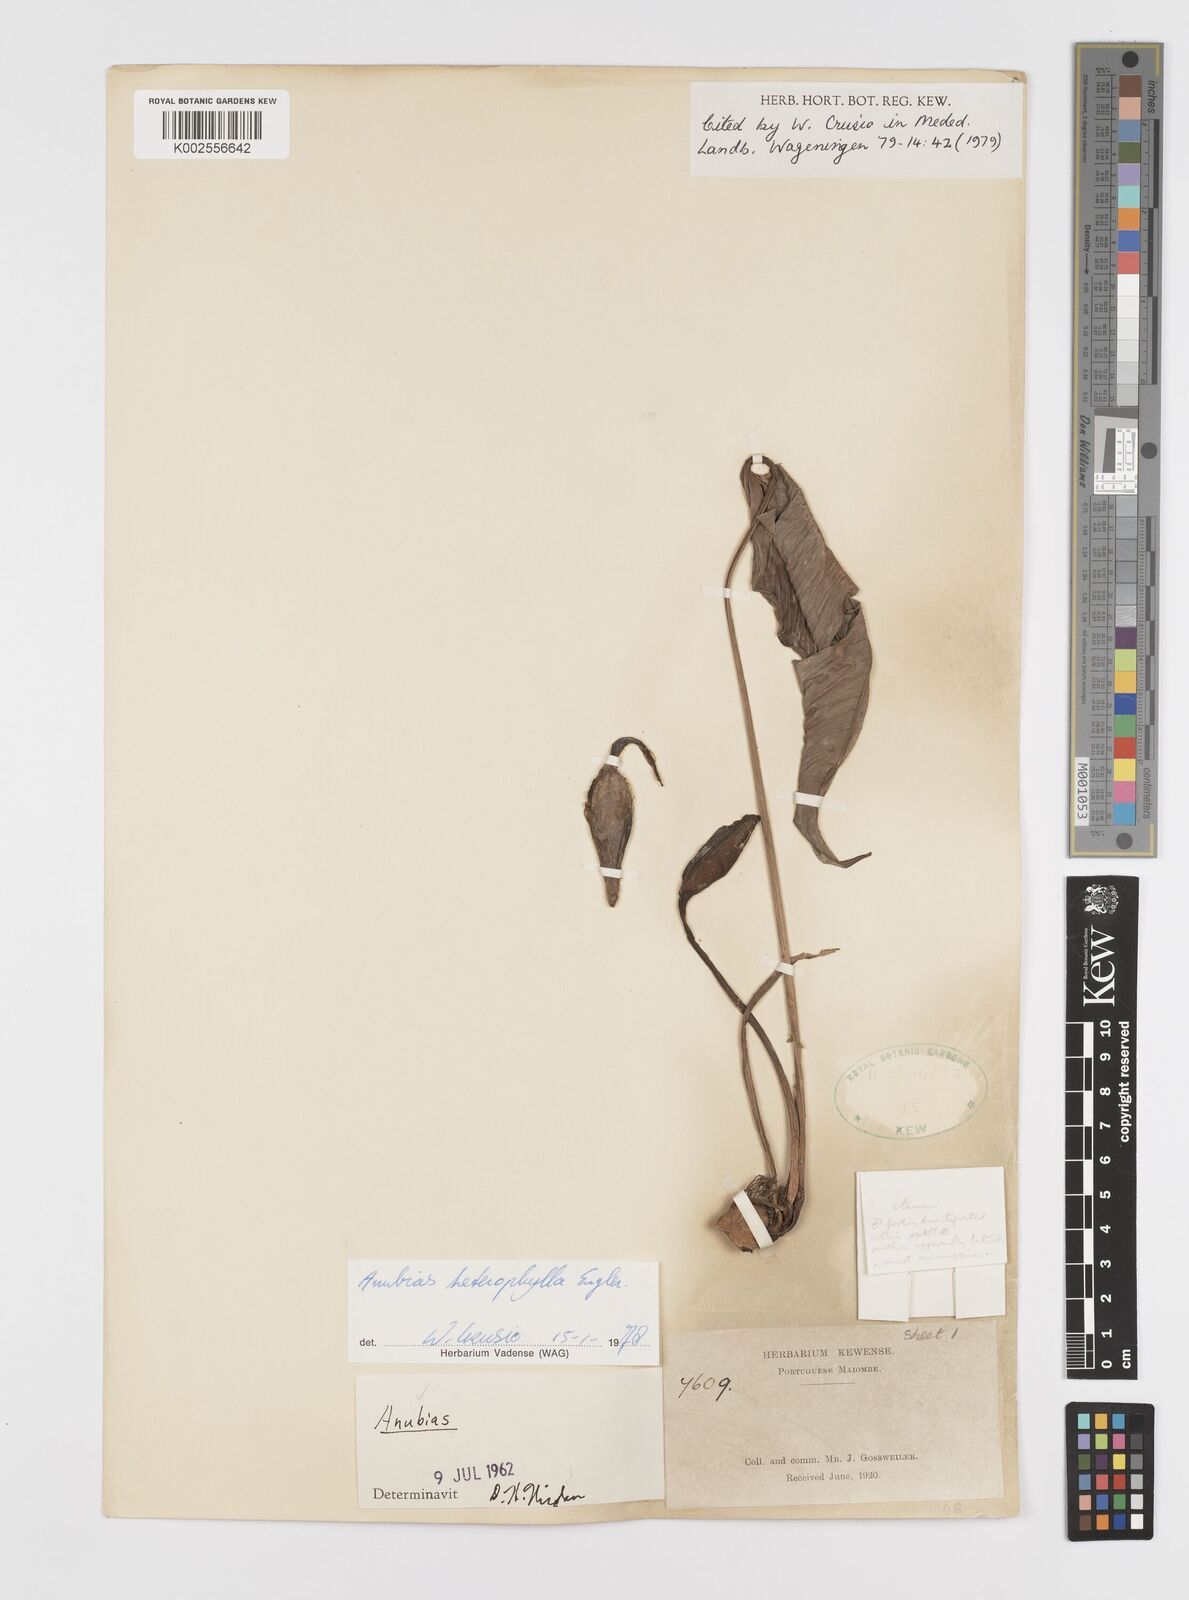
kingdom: Plantae
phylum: Tracheophyta
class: Liliopsida
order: Alismatales
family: Araceae
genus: Anubias
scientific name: Anubias heterophylla
